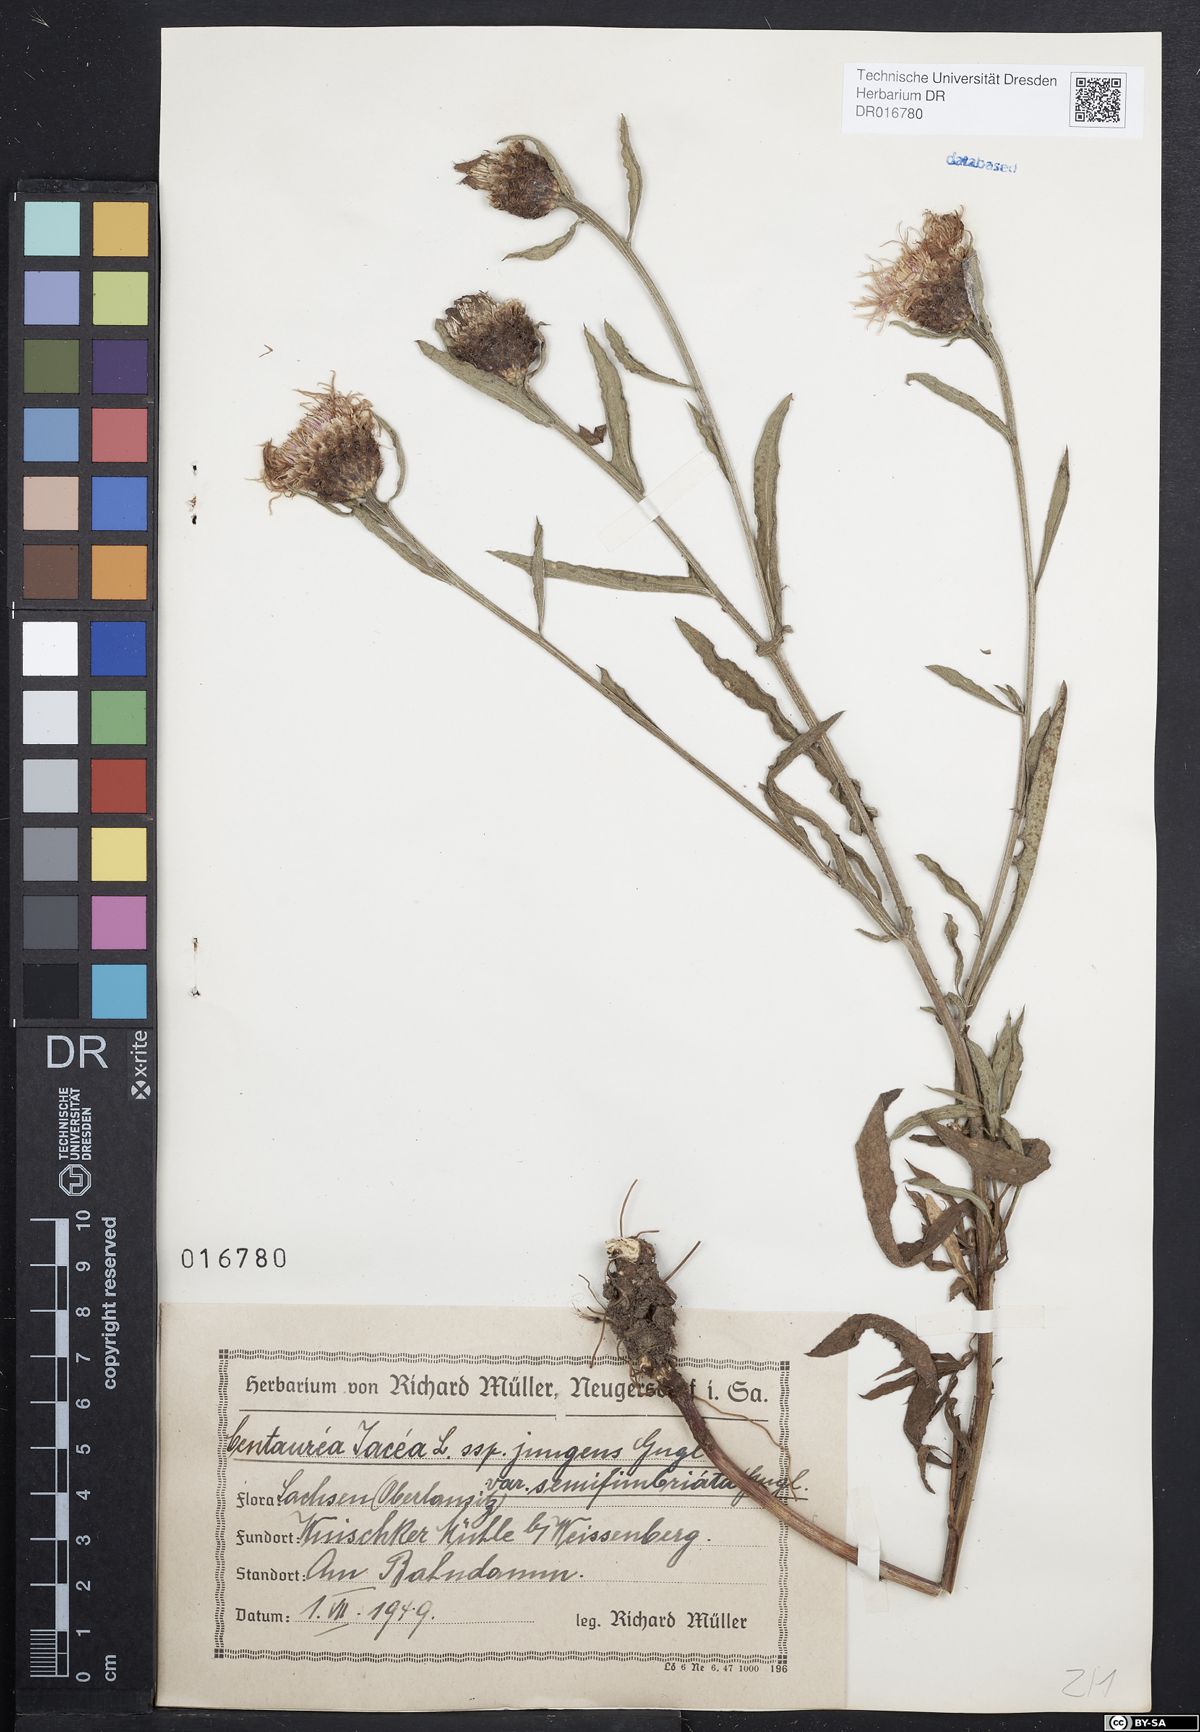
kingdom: Plantae
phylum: Tracheophyta
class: Magnoliopsida
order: Asterales
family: Asteraceae
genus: Centaurea
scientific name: Centaurea jacea
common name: Brown knapweed
